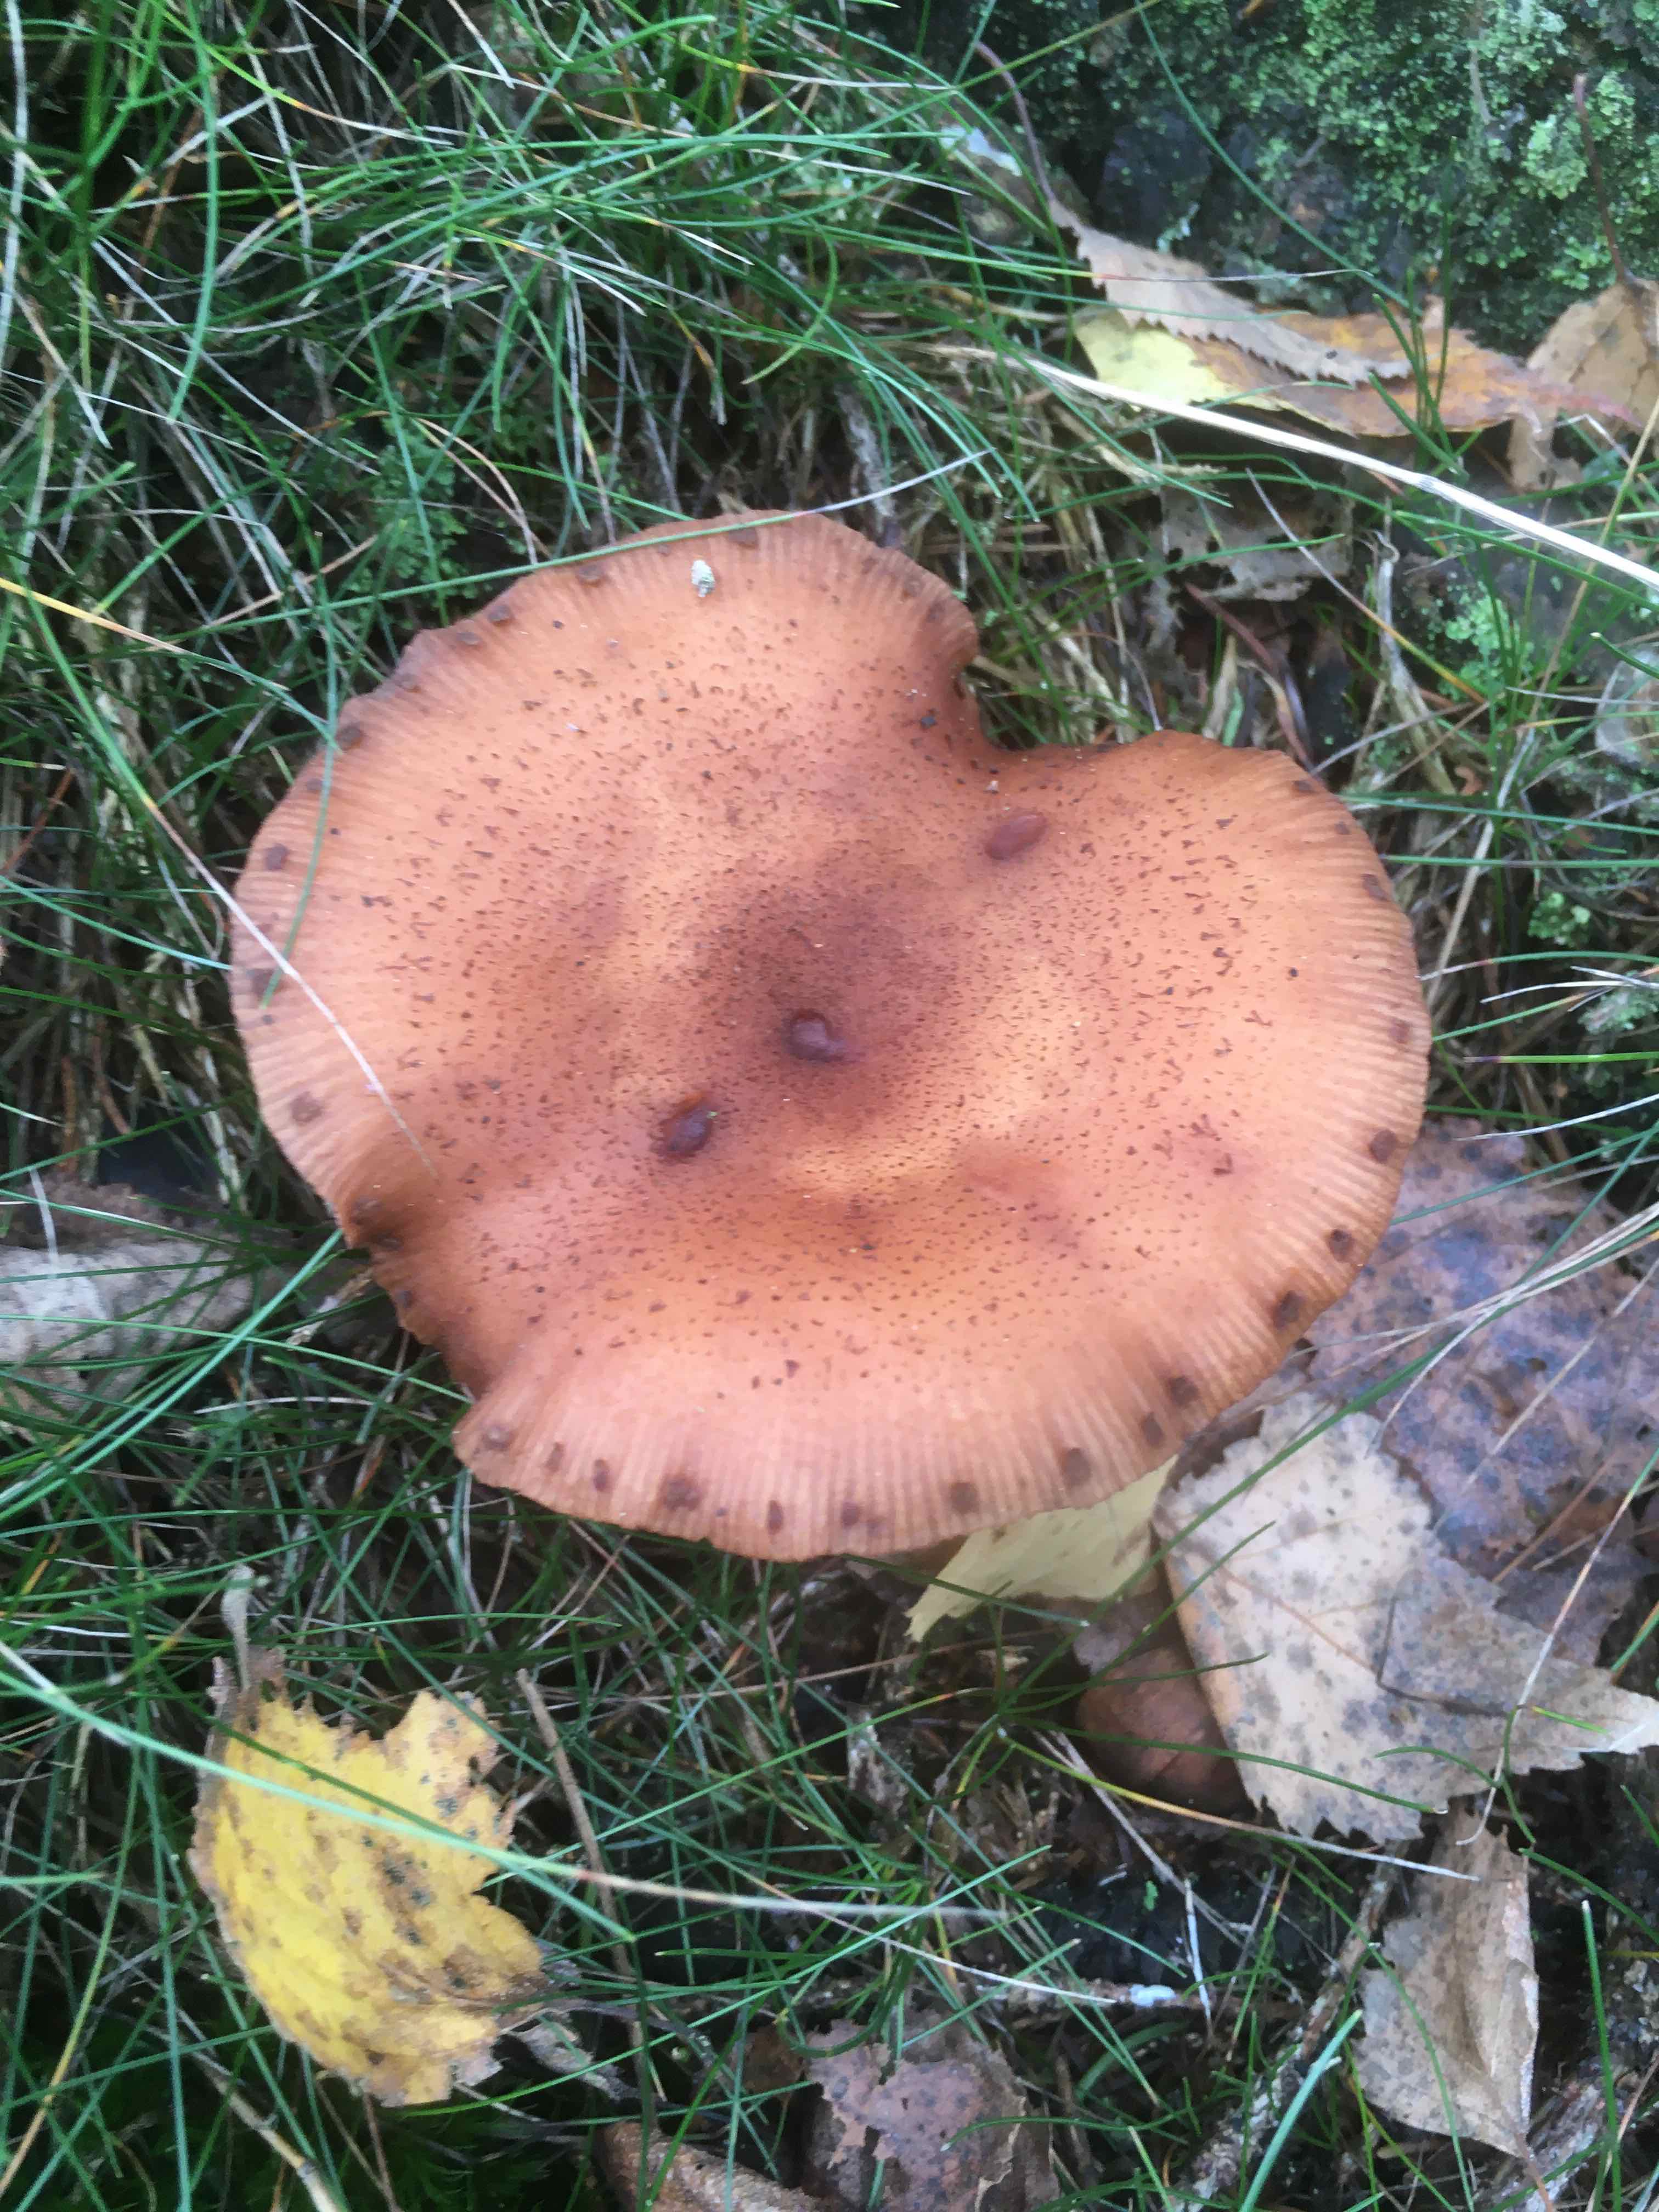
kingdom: Fungi
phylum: Basidiomycota
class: Agaricomycetes
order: Agaricales
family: Physalacriaceae
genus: Armillaria
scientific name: Armillaria
